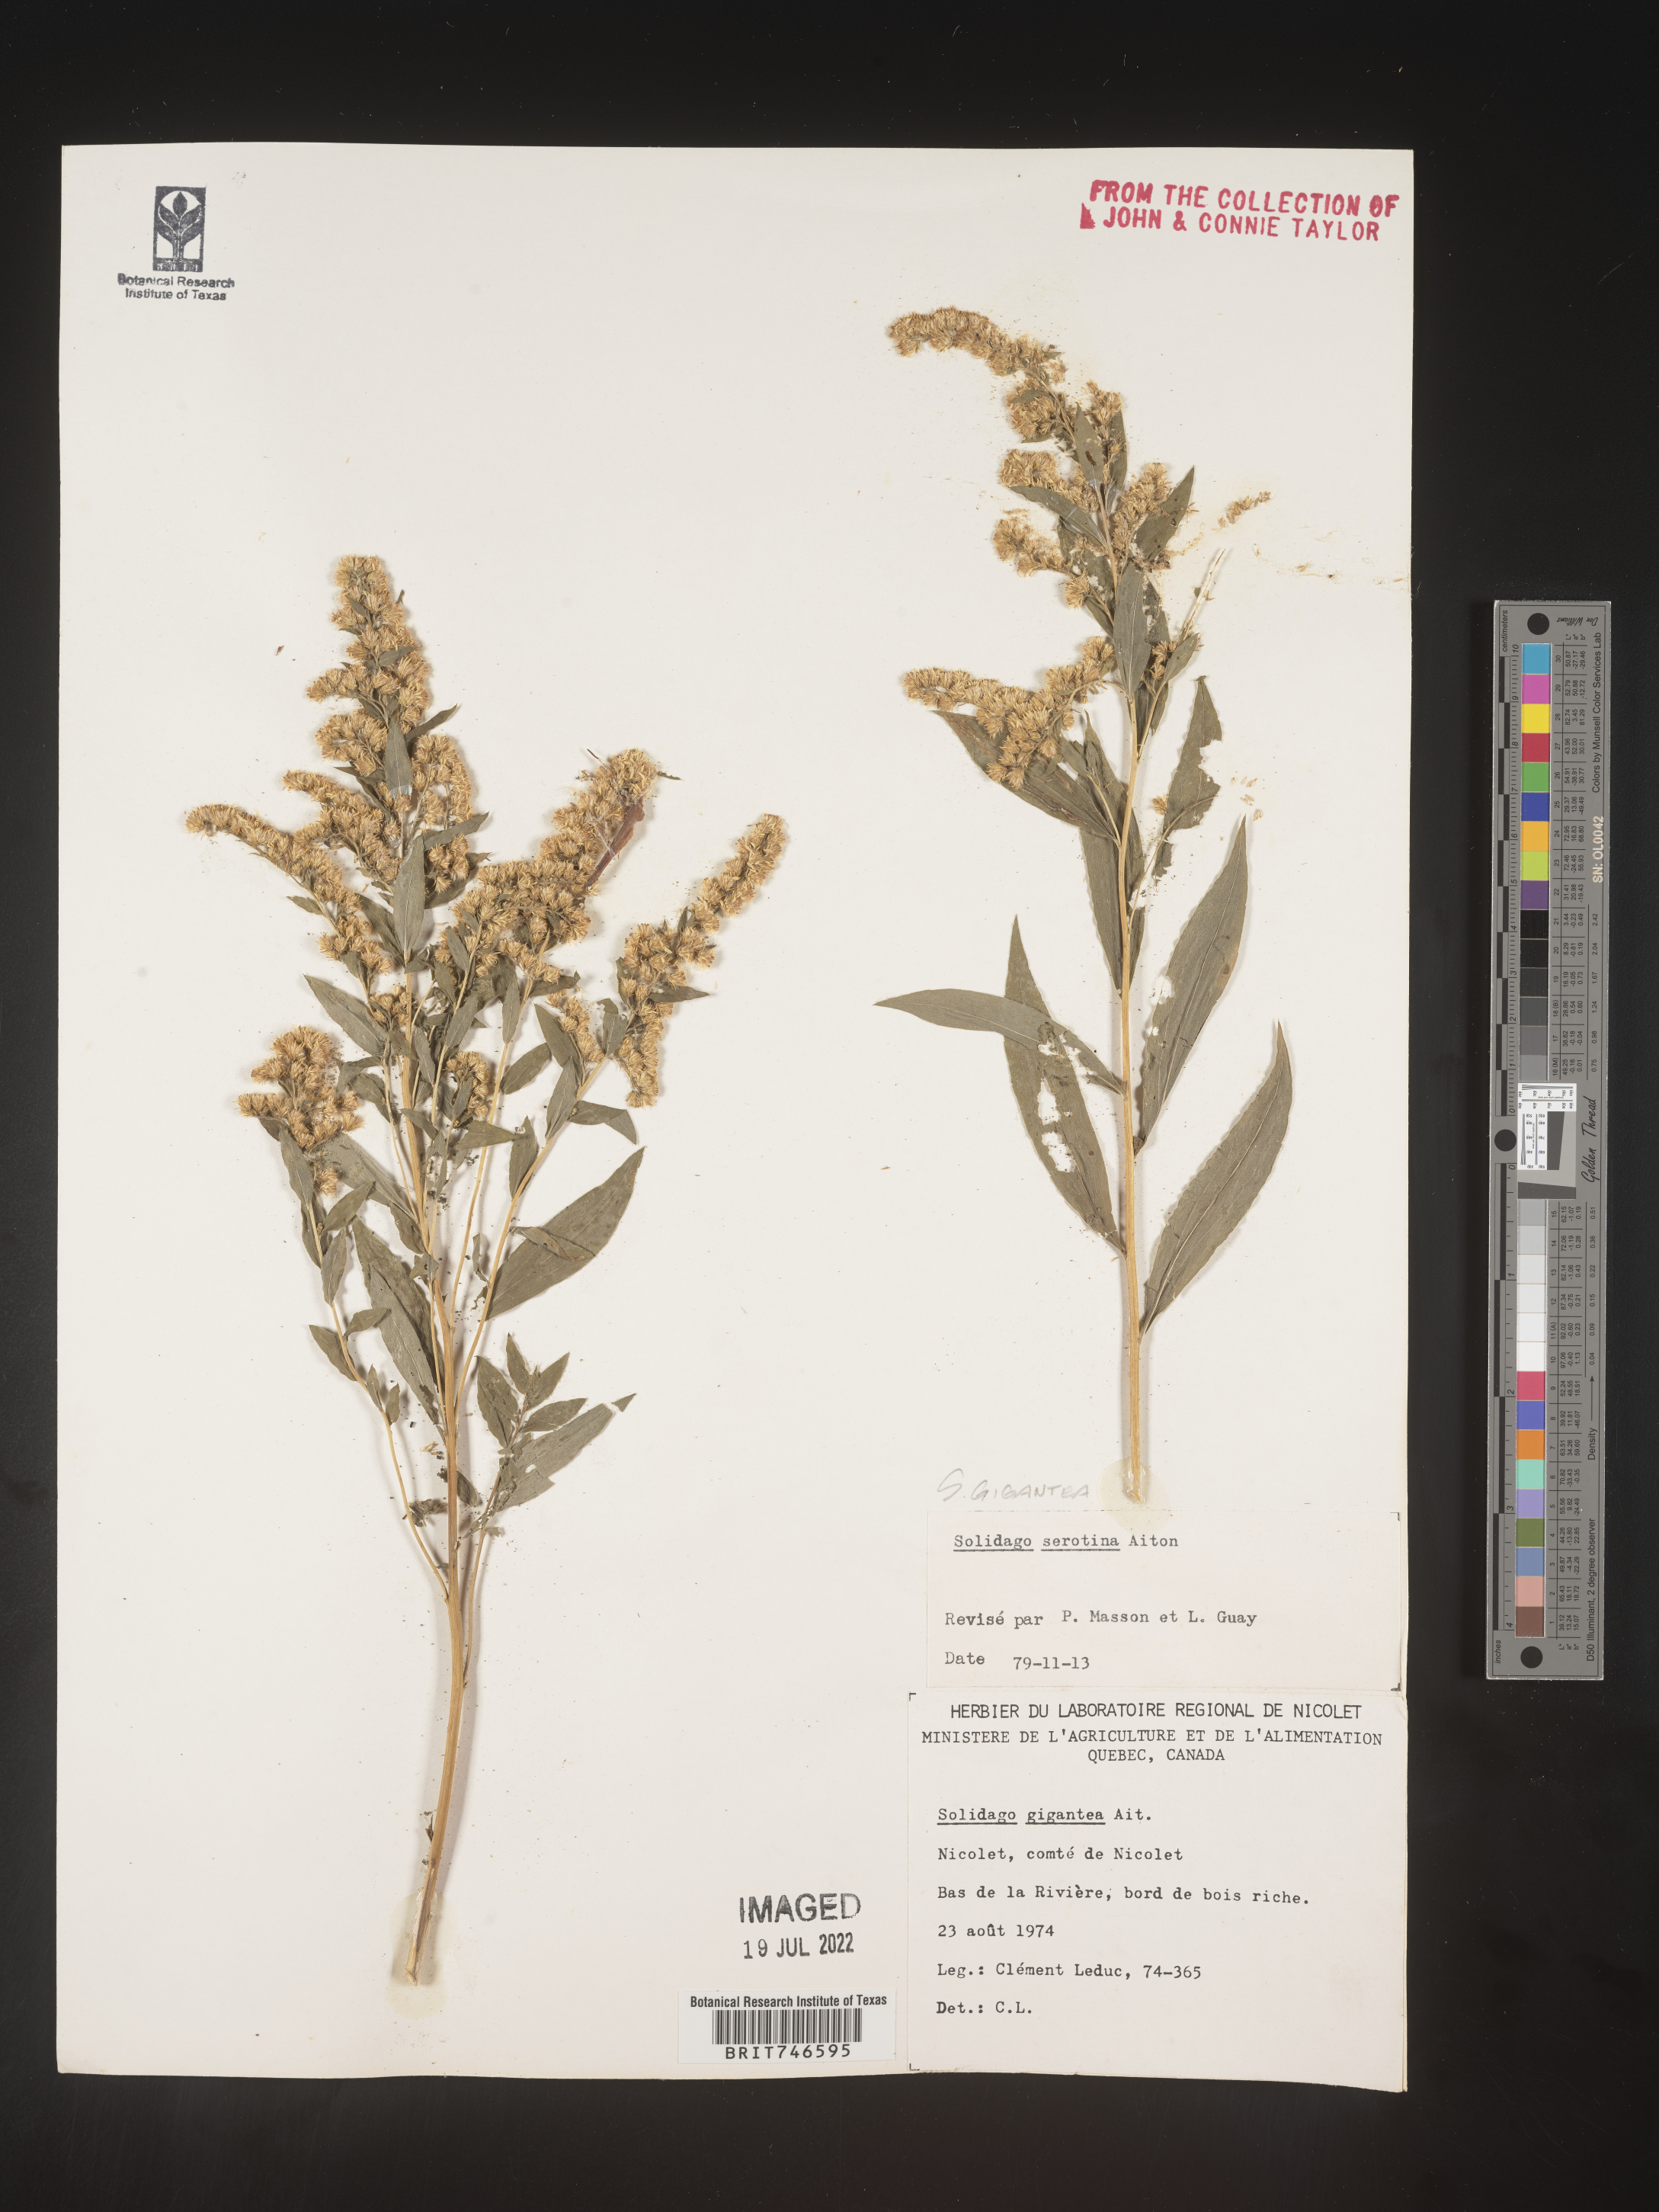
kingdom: Plantae
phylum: Tracheophyta
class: Magnoliopsida
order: Asterales
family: Asteraceae
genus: Solidago
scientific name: Solidago gigantea
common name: Giant goldenrod
